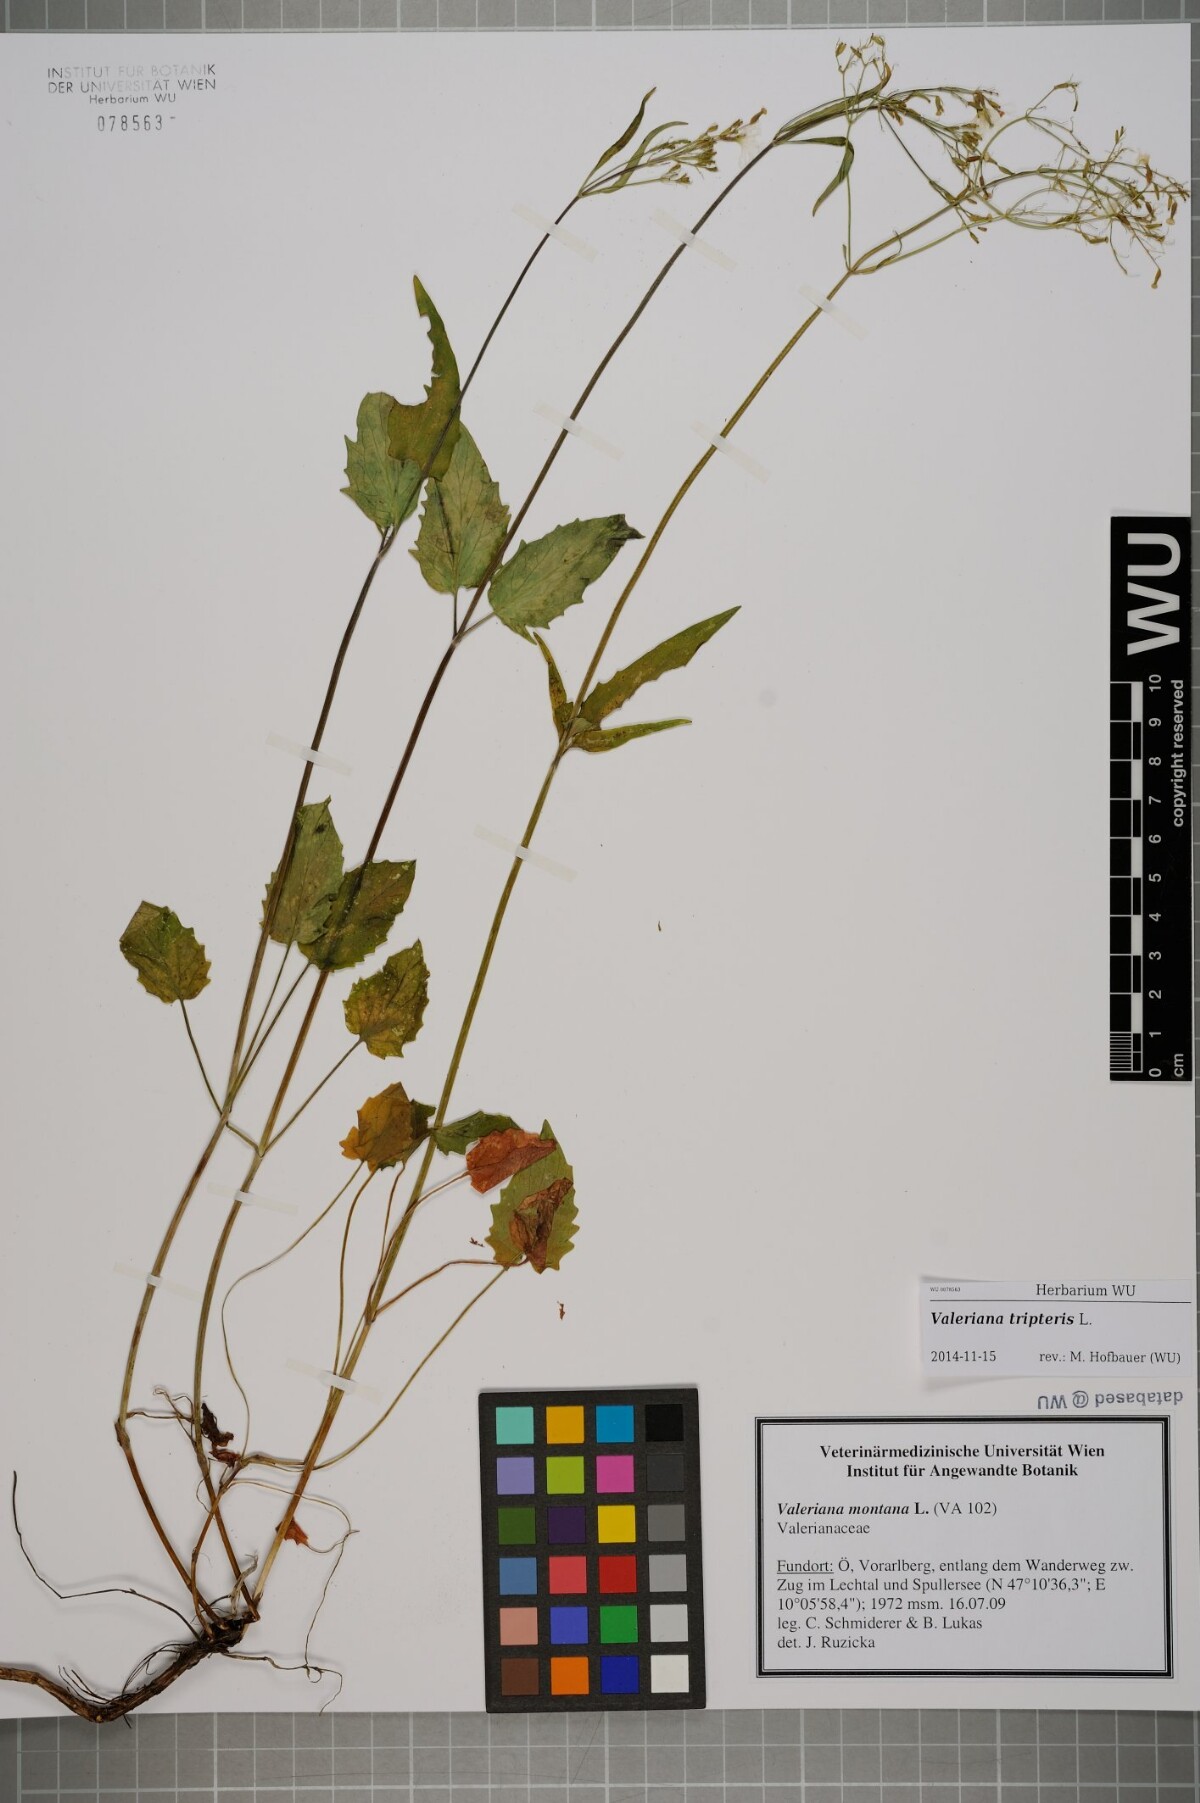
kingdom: Plantae
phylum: Tracheophyta
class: Magnoliopsida
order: Dipsacales
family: Caprifoliaceae
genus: Valeriana
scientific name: Valeriana tripteris
